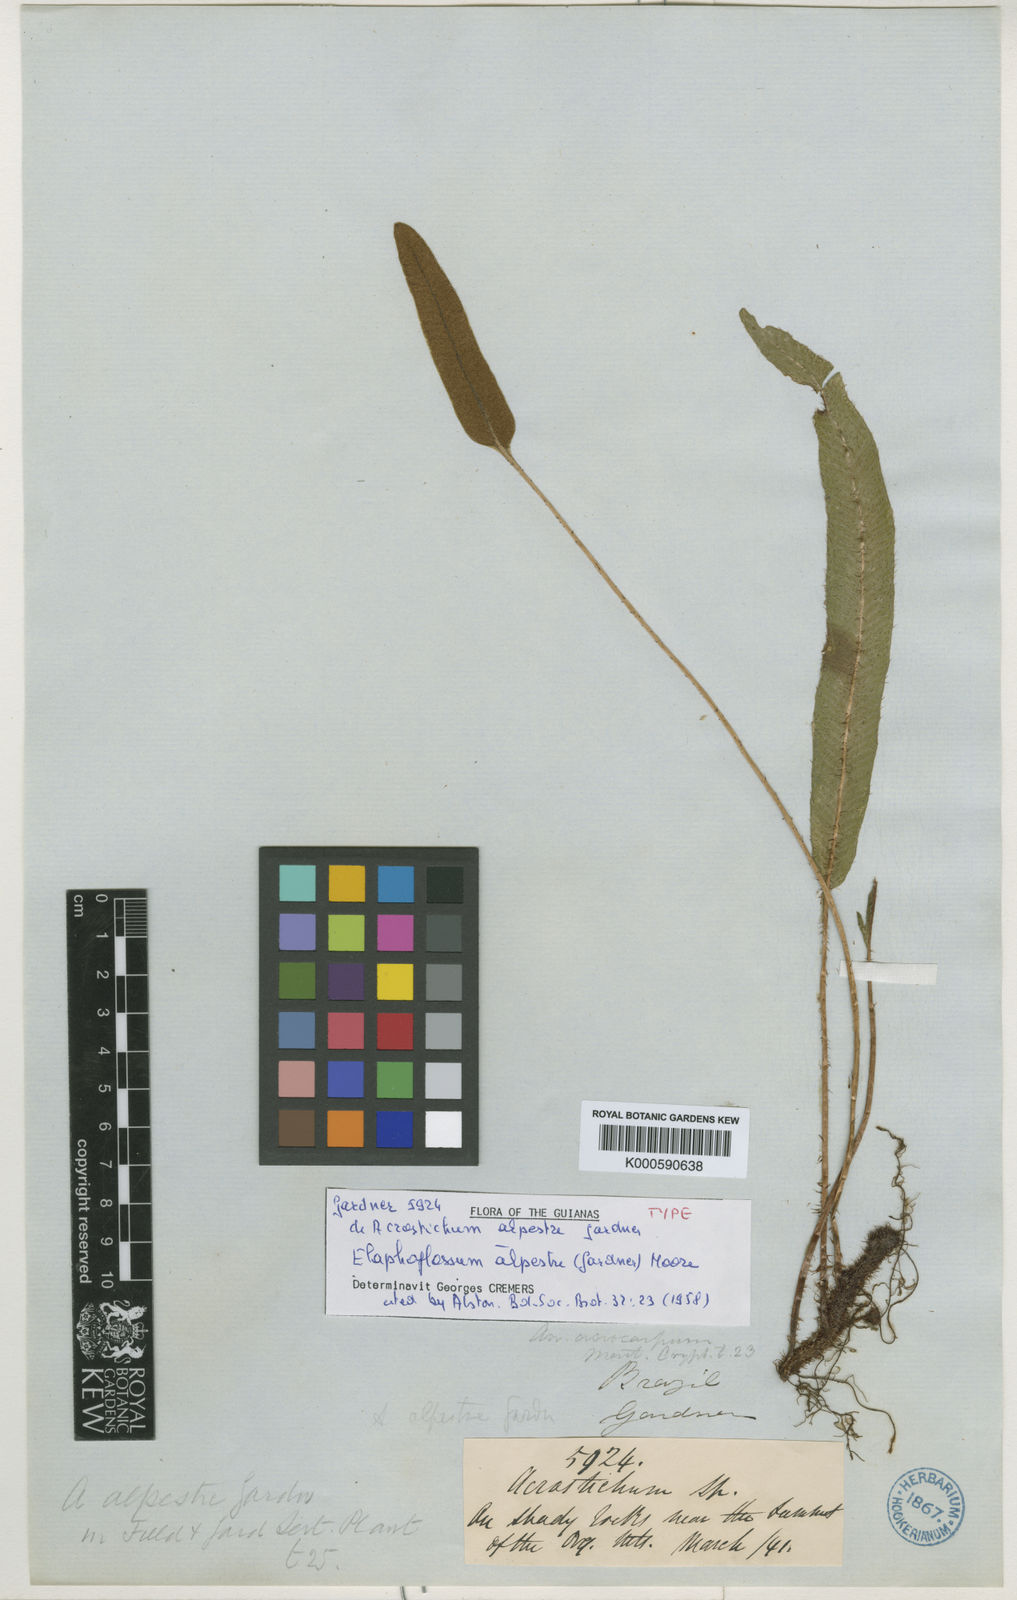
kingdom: Plantae
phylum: Tracheophyta
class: Polypodiopsida
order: Polypodiales
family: Dryopteridaceae
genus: Elaphoglossum
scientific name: Elaphoglossum alpestre
